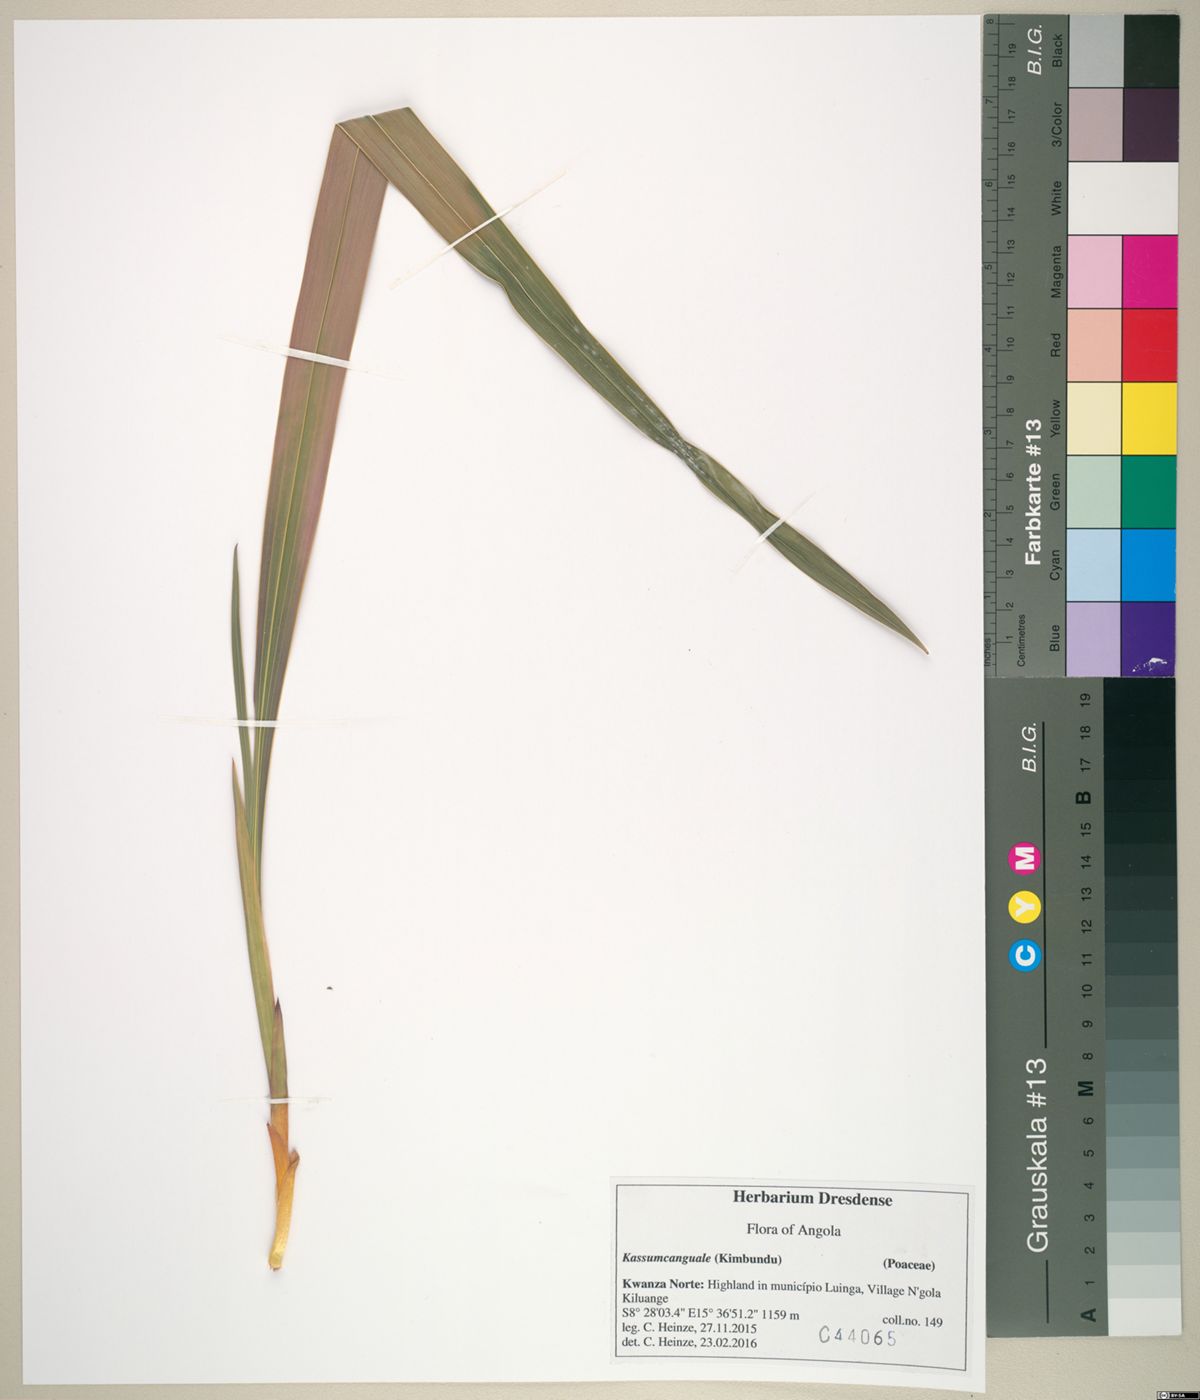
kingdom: Plantae
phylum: Tracheophyta
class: Liliopsida
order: Poales
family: Poaceae
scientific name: Poaceae
